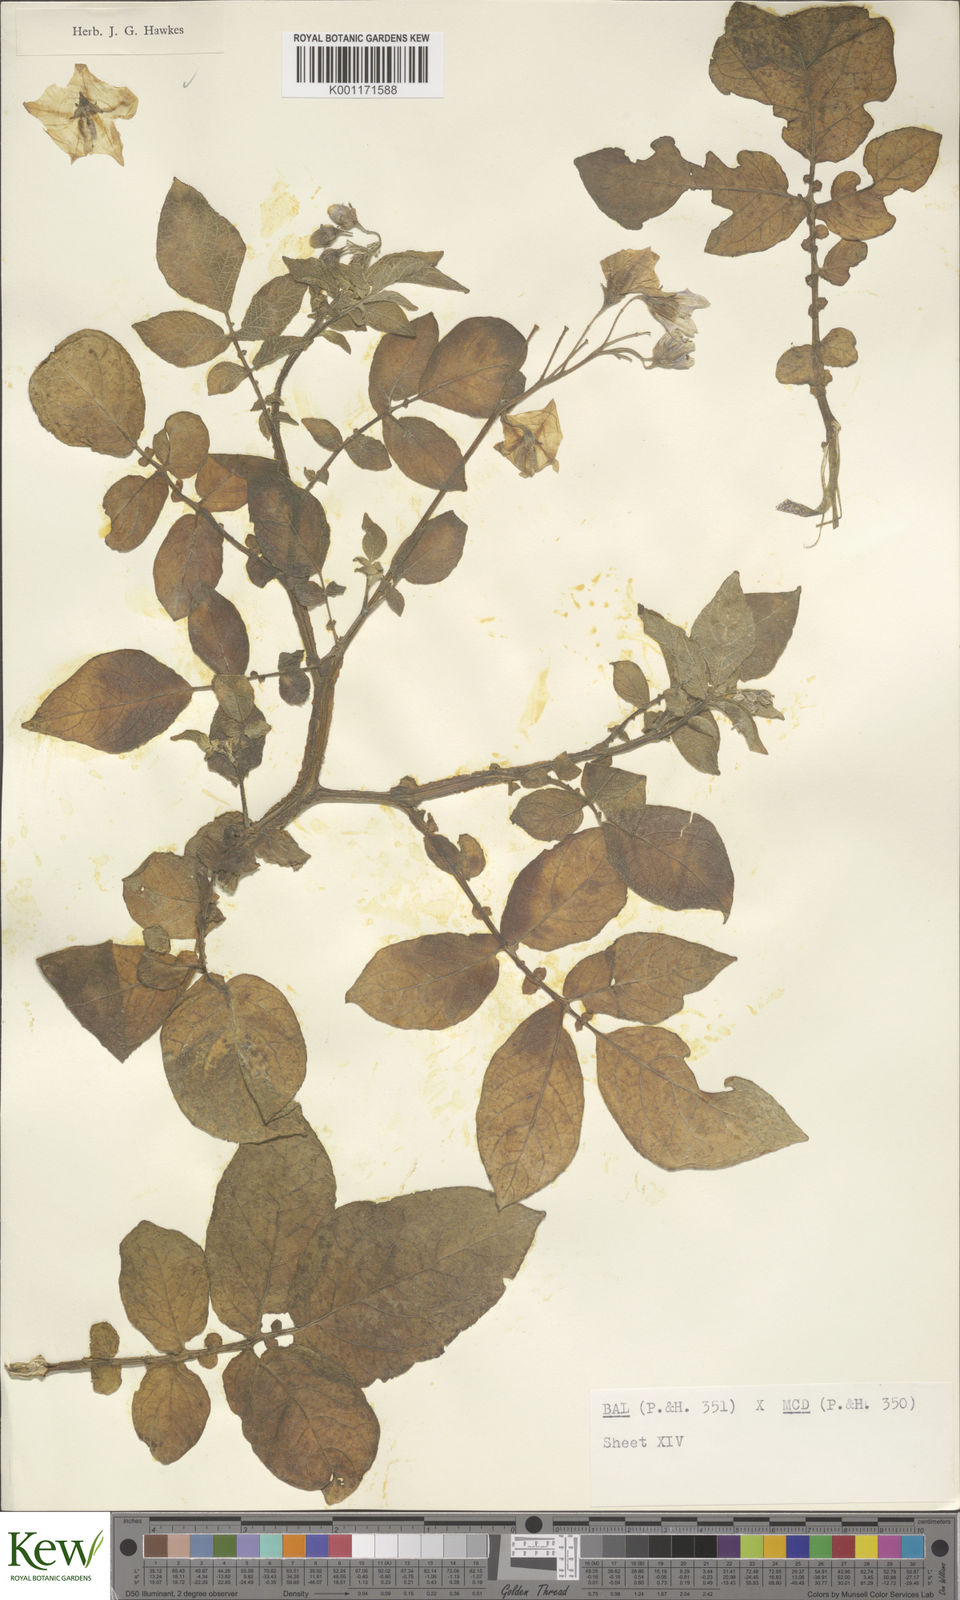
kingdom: Plantae
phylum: Tracheophyta
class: Magnoliopsida
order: Solanales
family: Solanaceae
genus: Solanum
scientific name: Solanum vernei
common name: Purple potato
